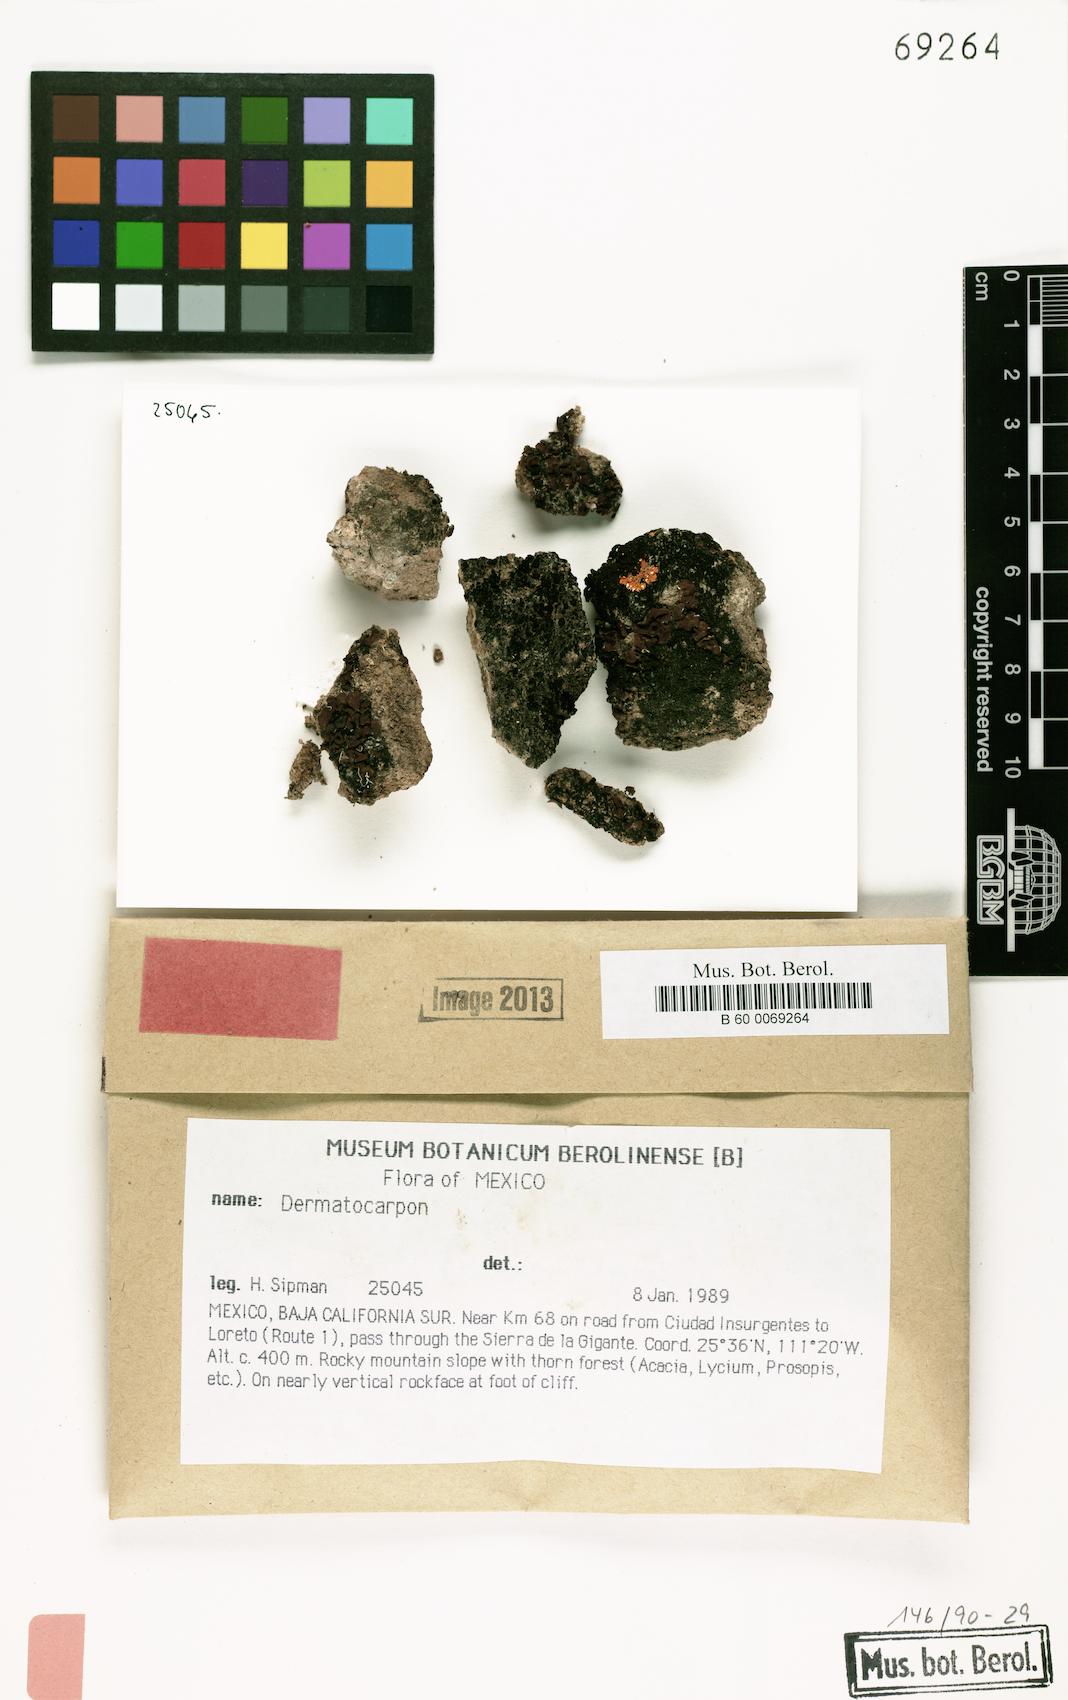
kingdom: Fungi
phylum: Ascomycota
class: Eurotiomycetes
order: Verrucariales
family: Verrucariaceae
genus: Catapyrenium
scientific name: Catapyrenium simulans
